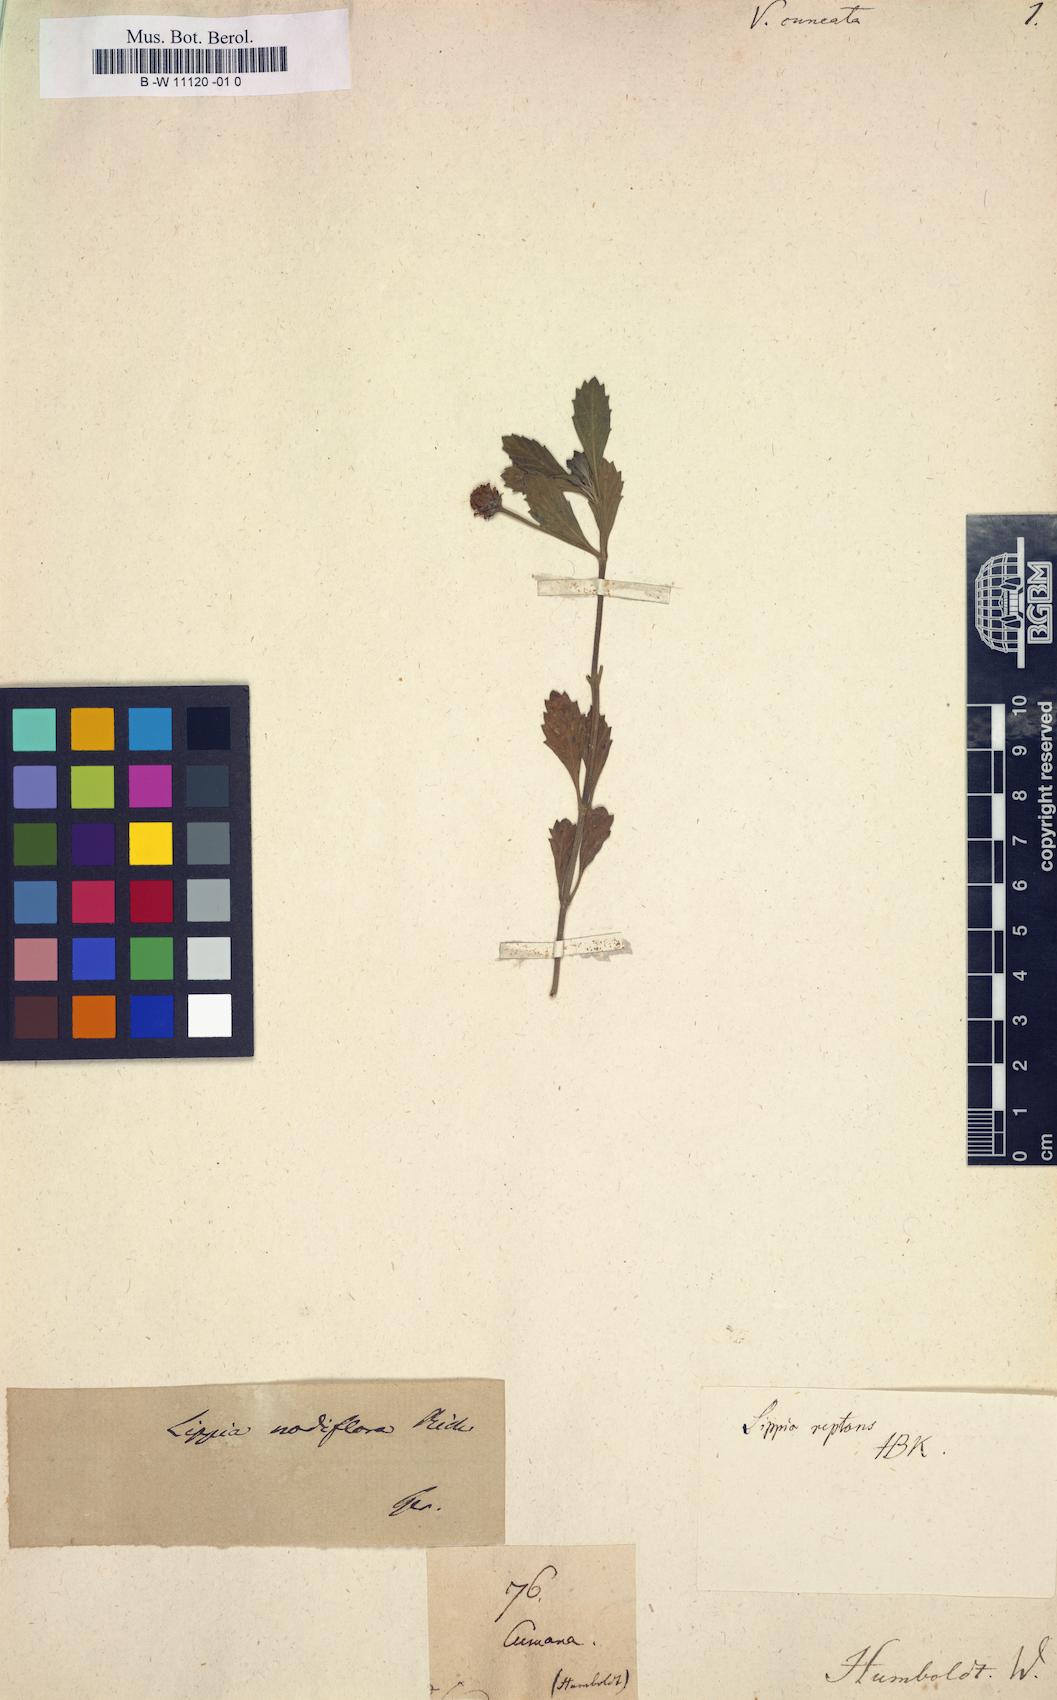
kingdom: Plantae
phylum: Tracheophyta
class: Magnoliopsida
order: Lamiales
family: Verbenaceae
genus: Phyla
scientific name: Phyla nodiflora
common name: Frogfruit
